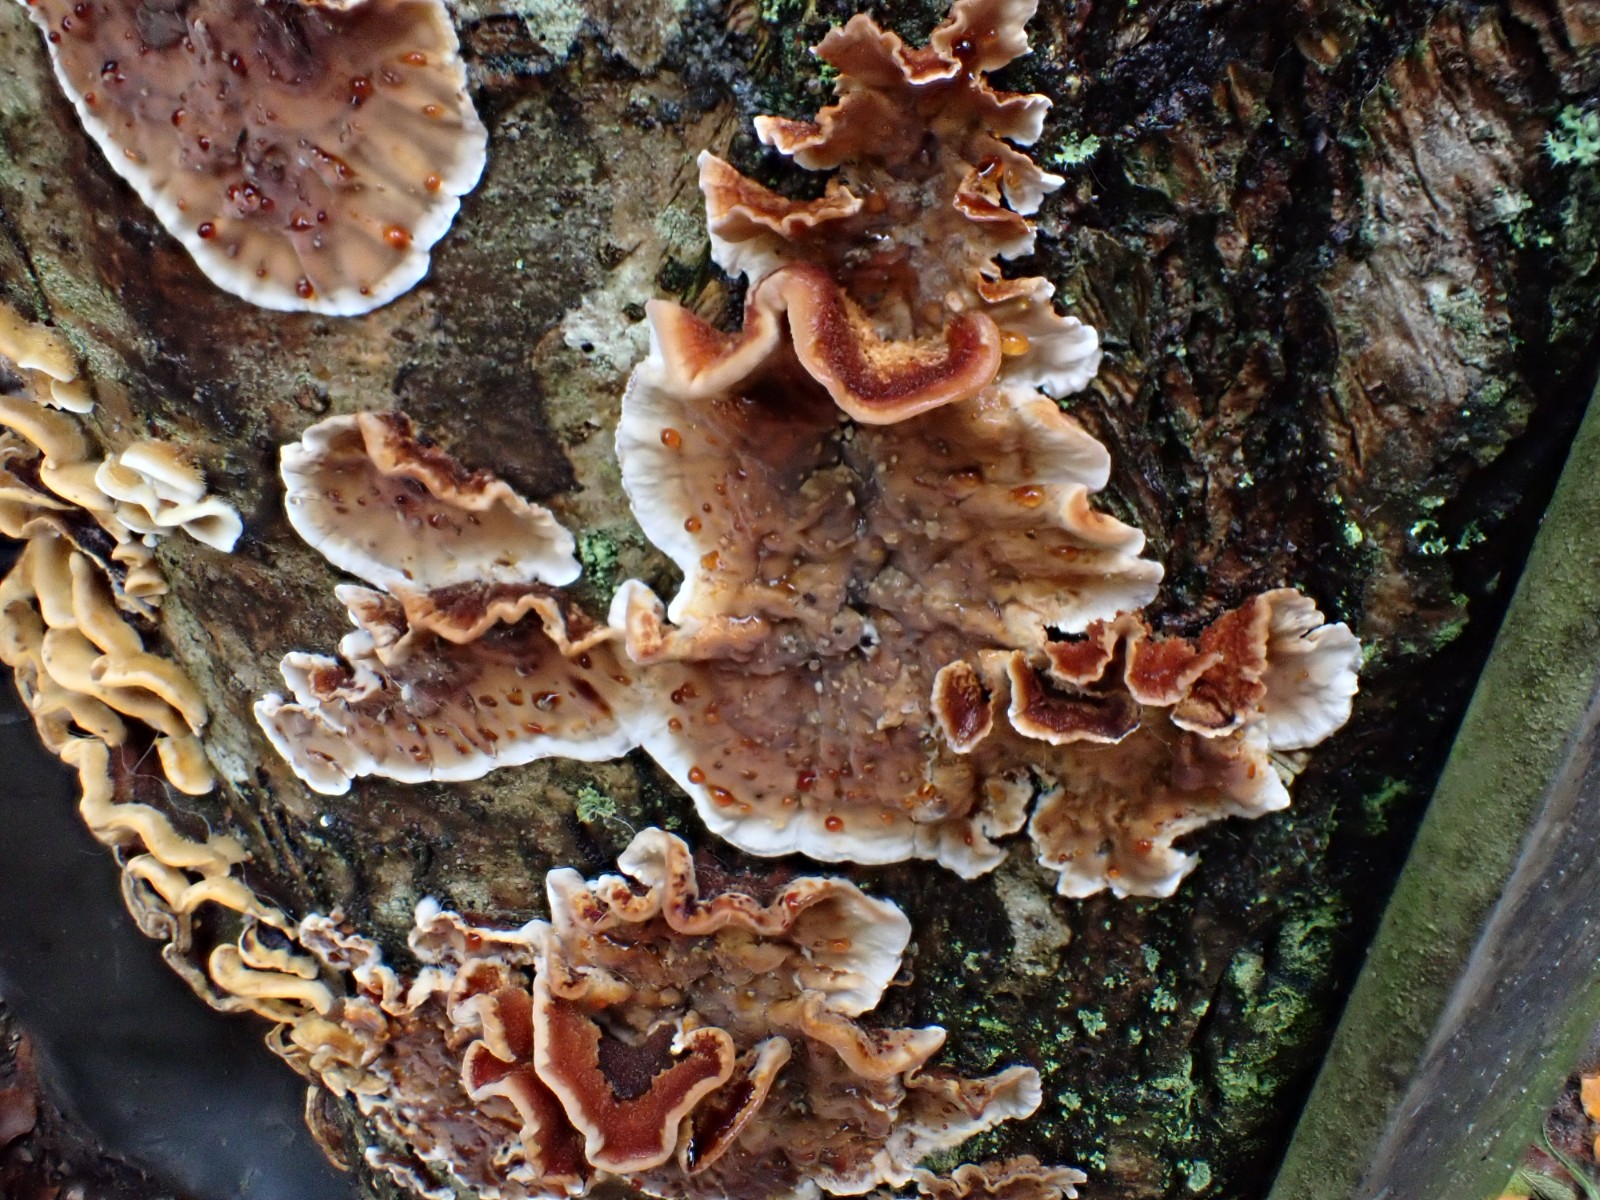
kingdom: Fungi
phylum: Basidiomycota
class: Agaricomycetes
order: Russulales
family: Stereaceae
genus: Stereum
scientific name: Stereum gausapatum
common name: tynd lædersvamp
